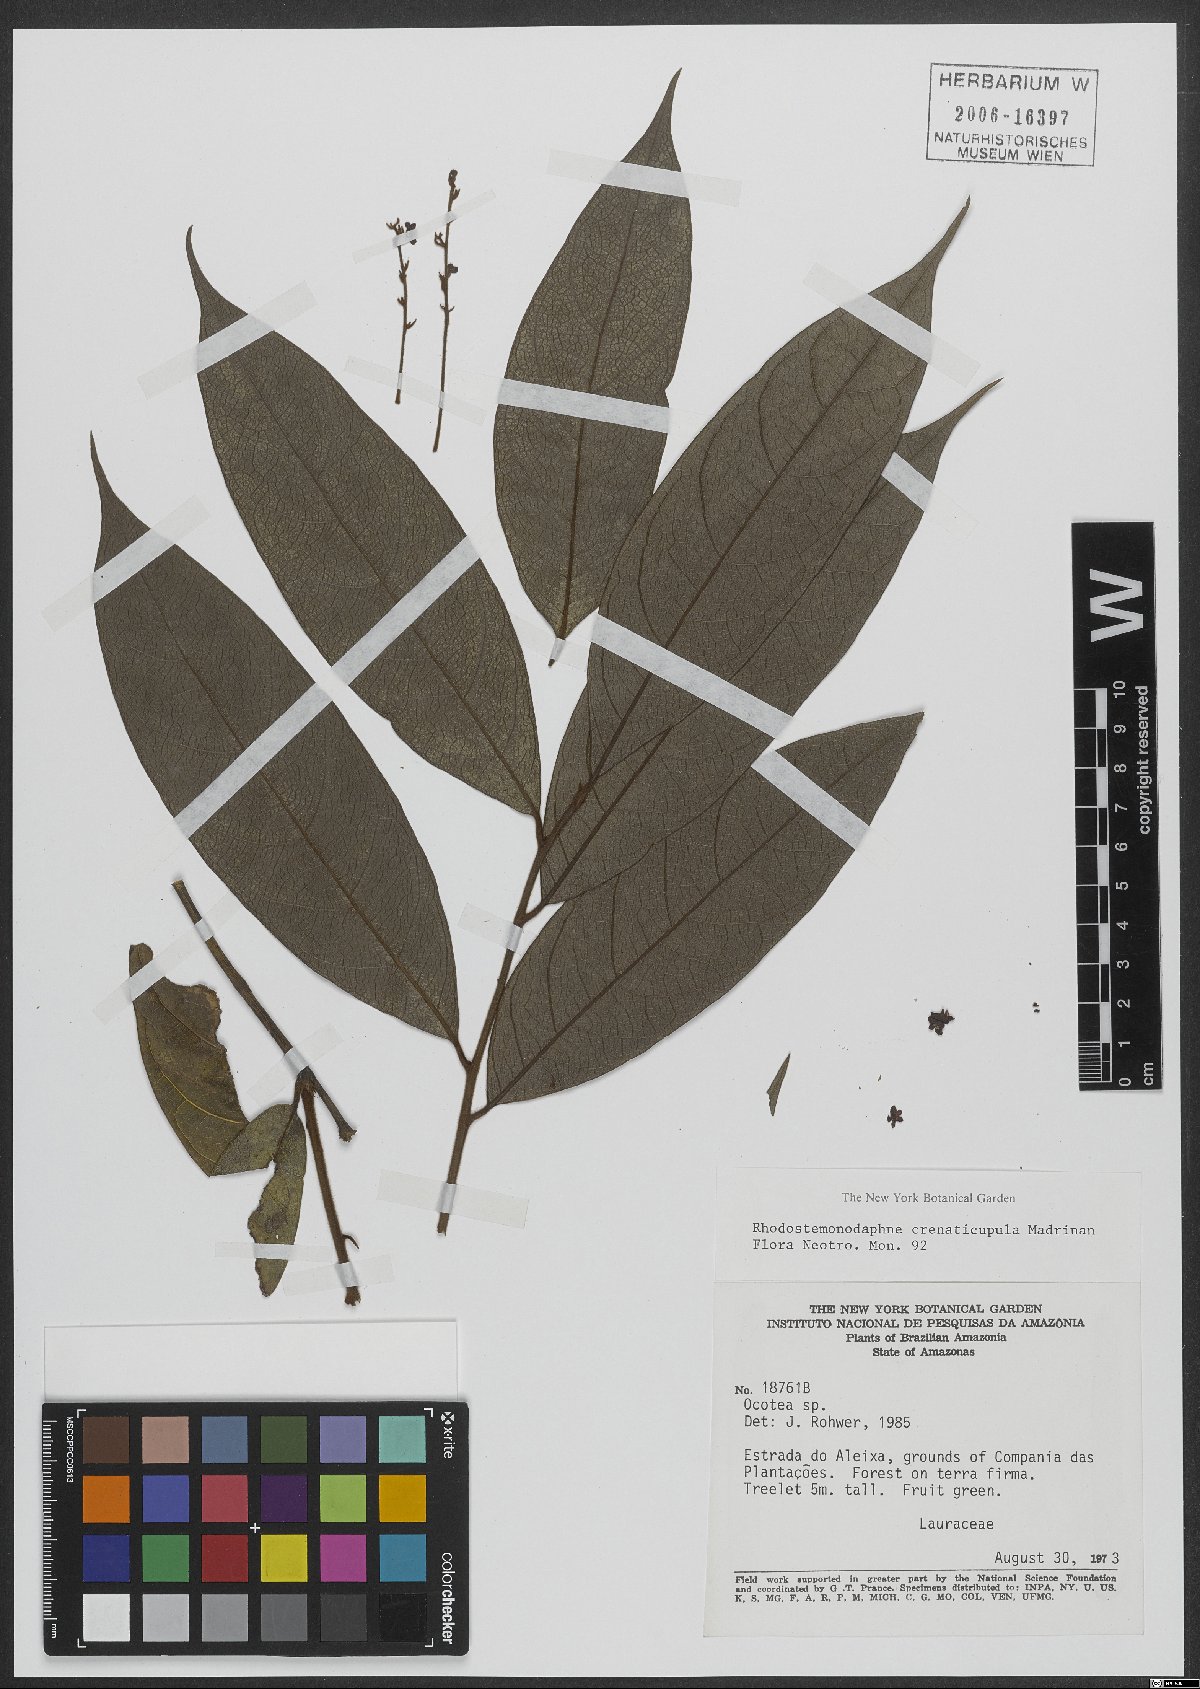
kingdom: Plantae
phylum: Tracheophyta
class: Magnoliopsida
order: Laurales
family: Lauraceae
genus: Rhodostemonodaphne
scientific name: Rhodostemonodaphne crenaticupula
